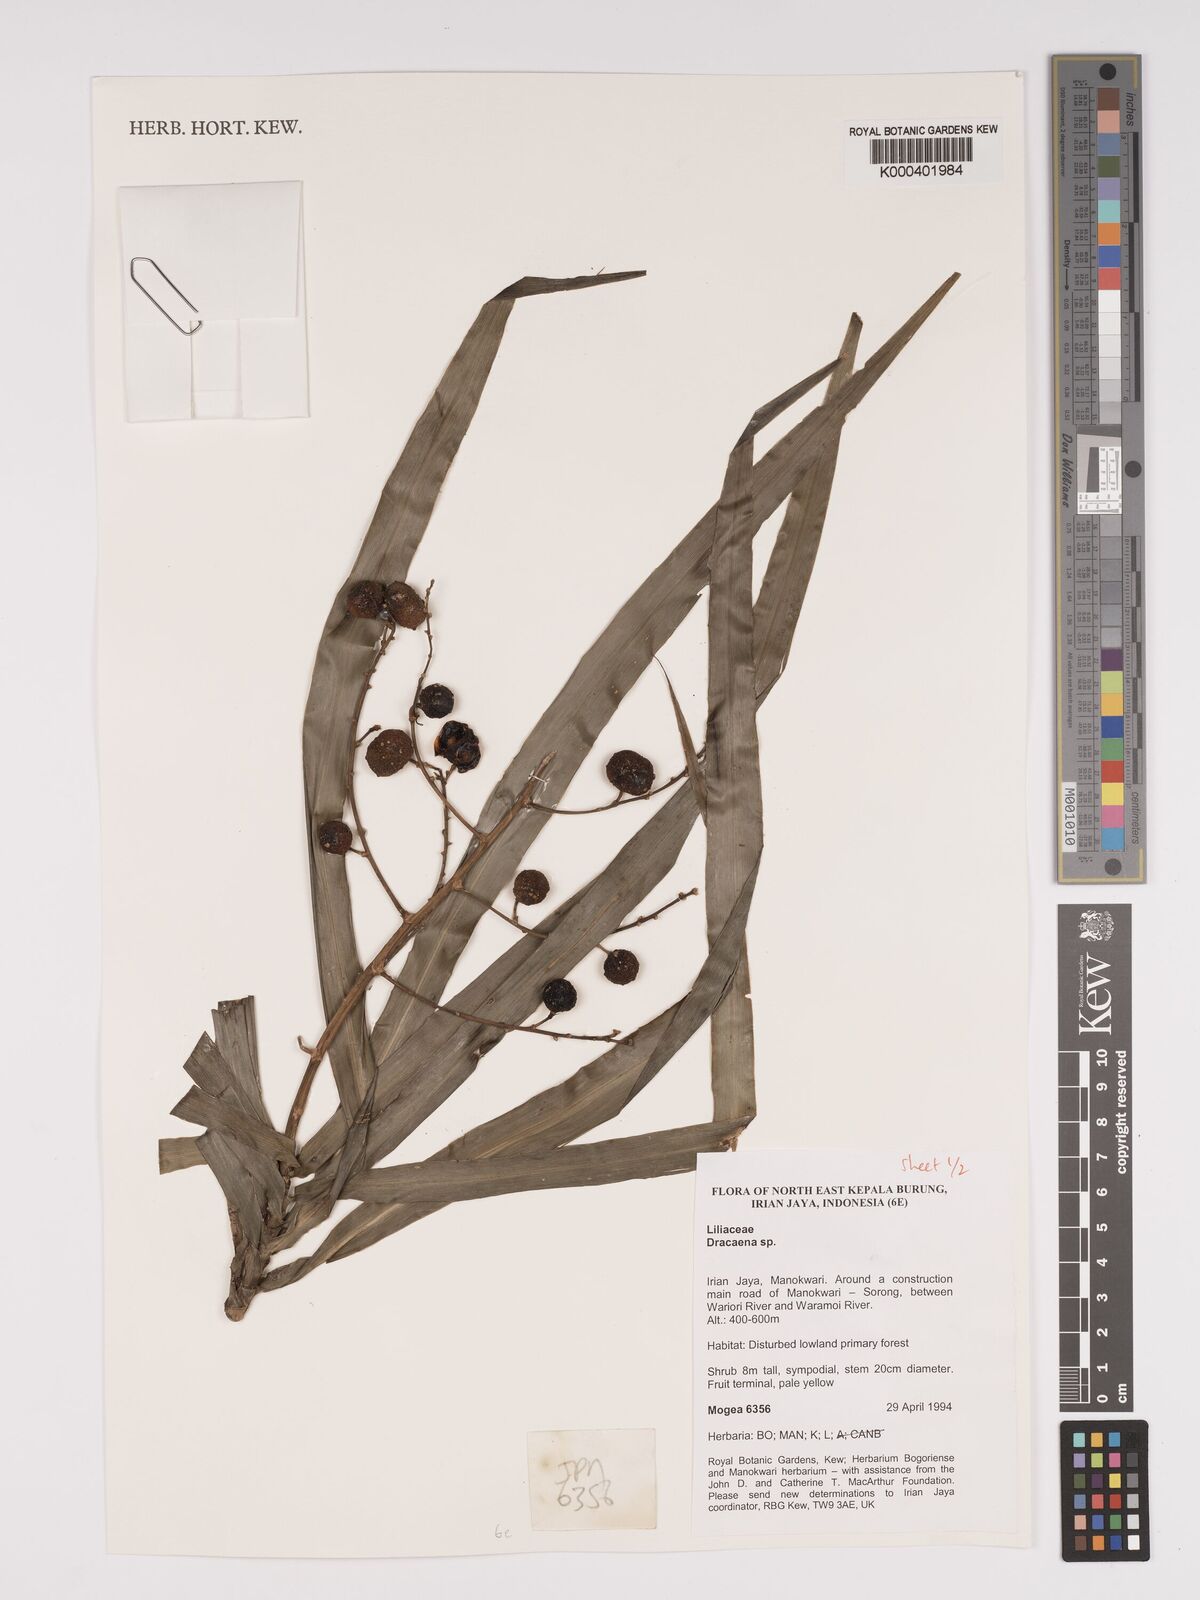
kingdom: Plantae
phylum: Tracheophyta
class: Liliopsida
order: Asparagales
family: Asparagaceae
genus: Dracaena
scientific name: Dracaena
